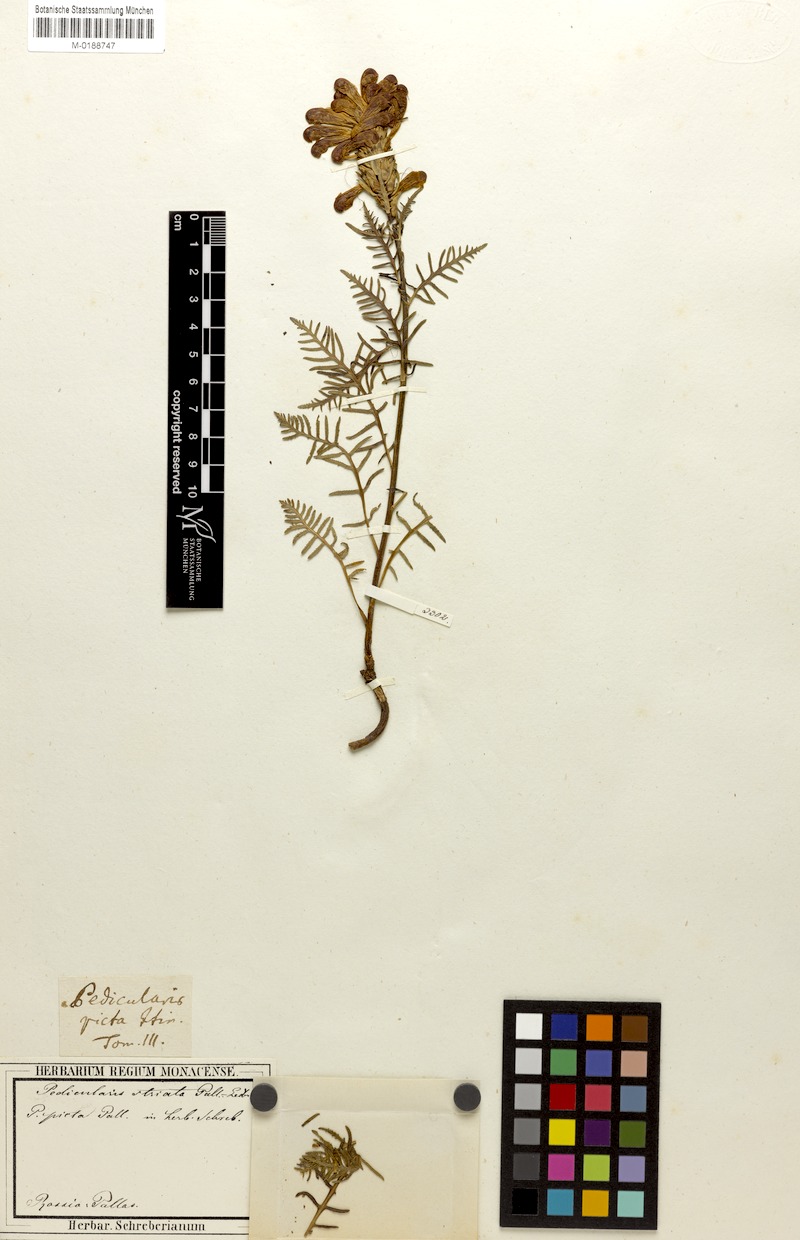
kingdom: Plantae
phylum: Tracheophyta
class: Magnoliopsida
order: Lamiales
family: Orobanchaceae
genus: Pedicularis
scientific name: Pedicularis striata
